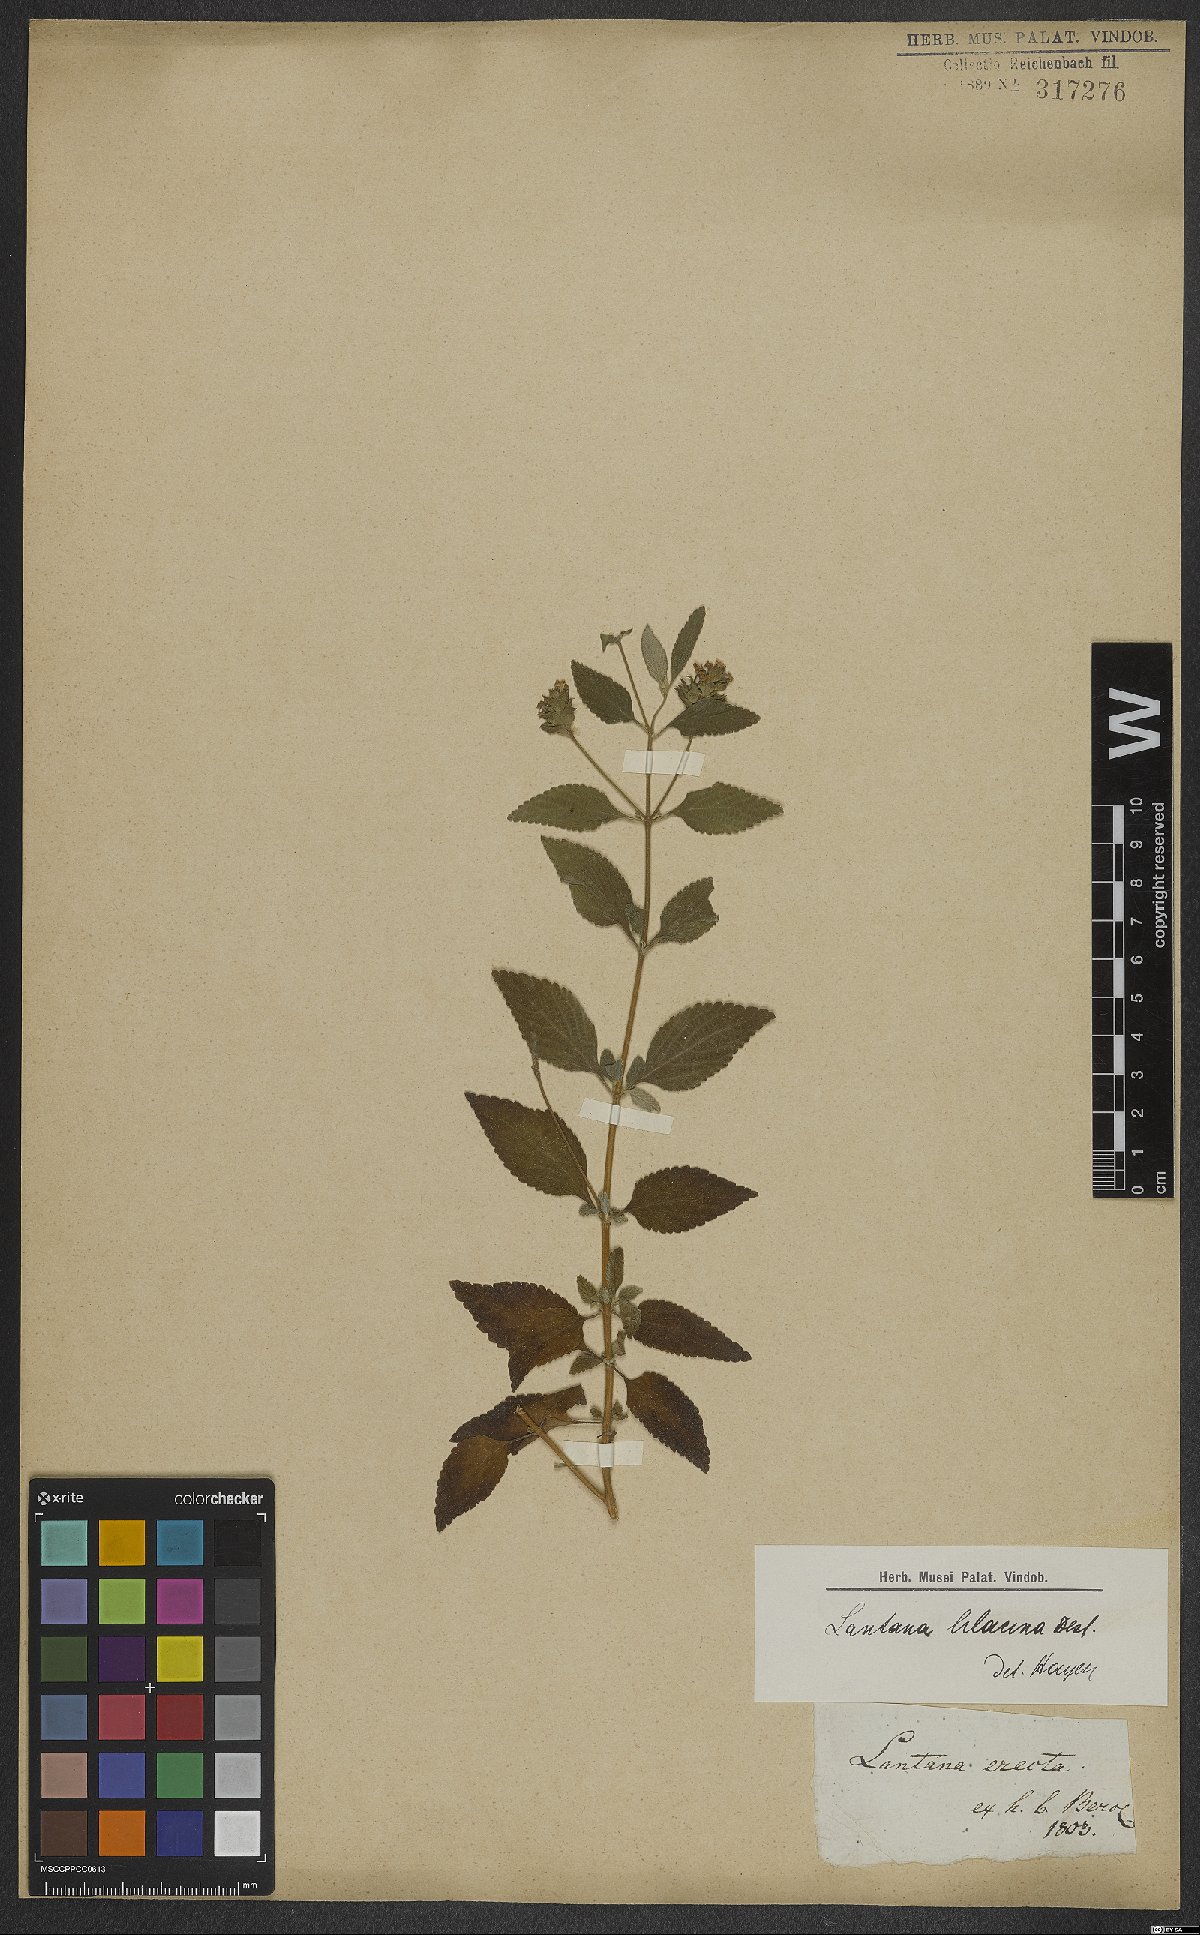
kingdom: Plantae
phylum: Tracheophyta
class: Magnoliopsida
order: Lamiales
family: Verbenaceae
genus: Lantana
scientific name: Lantana fucata
